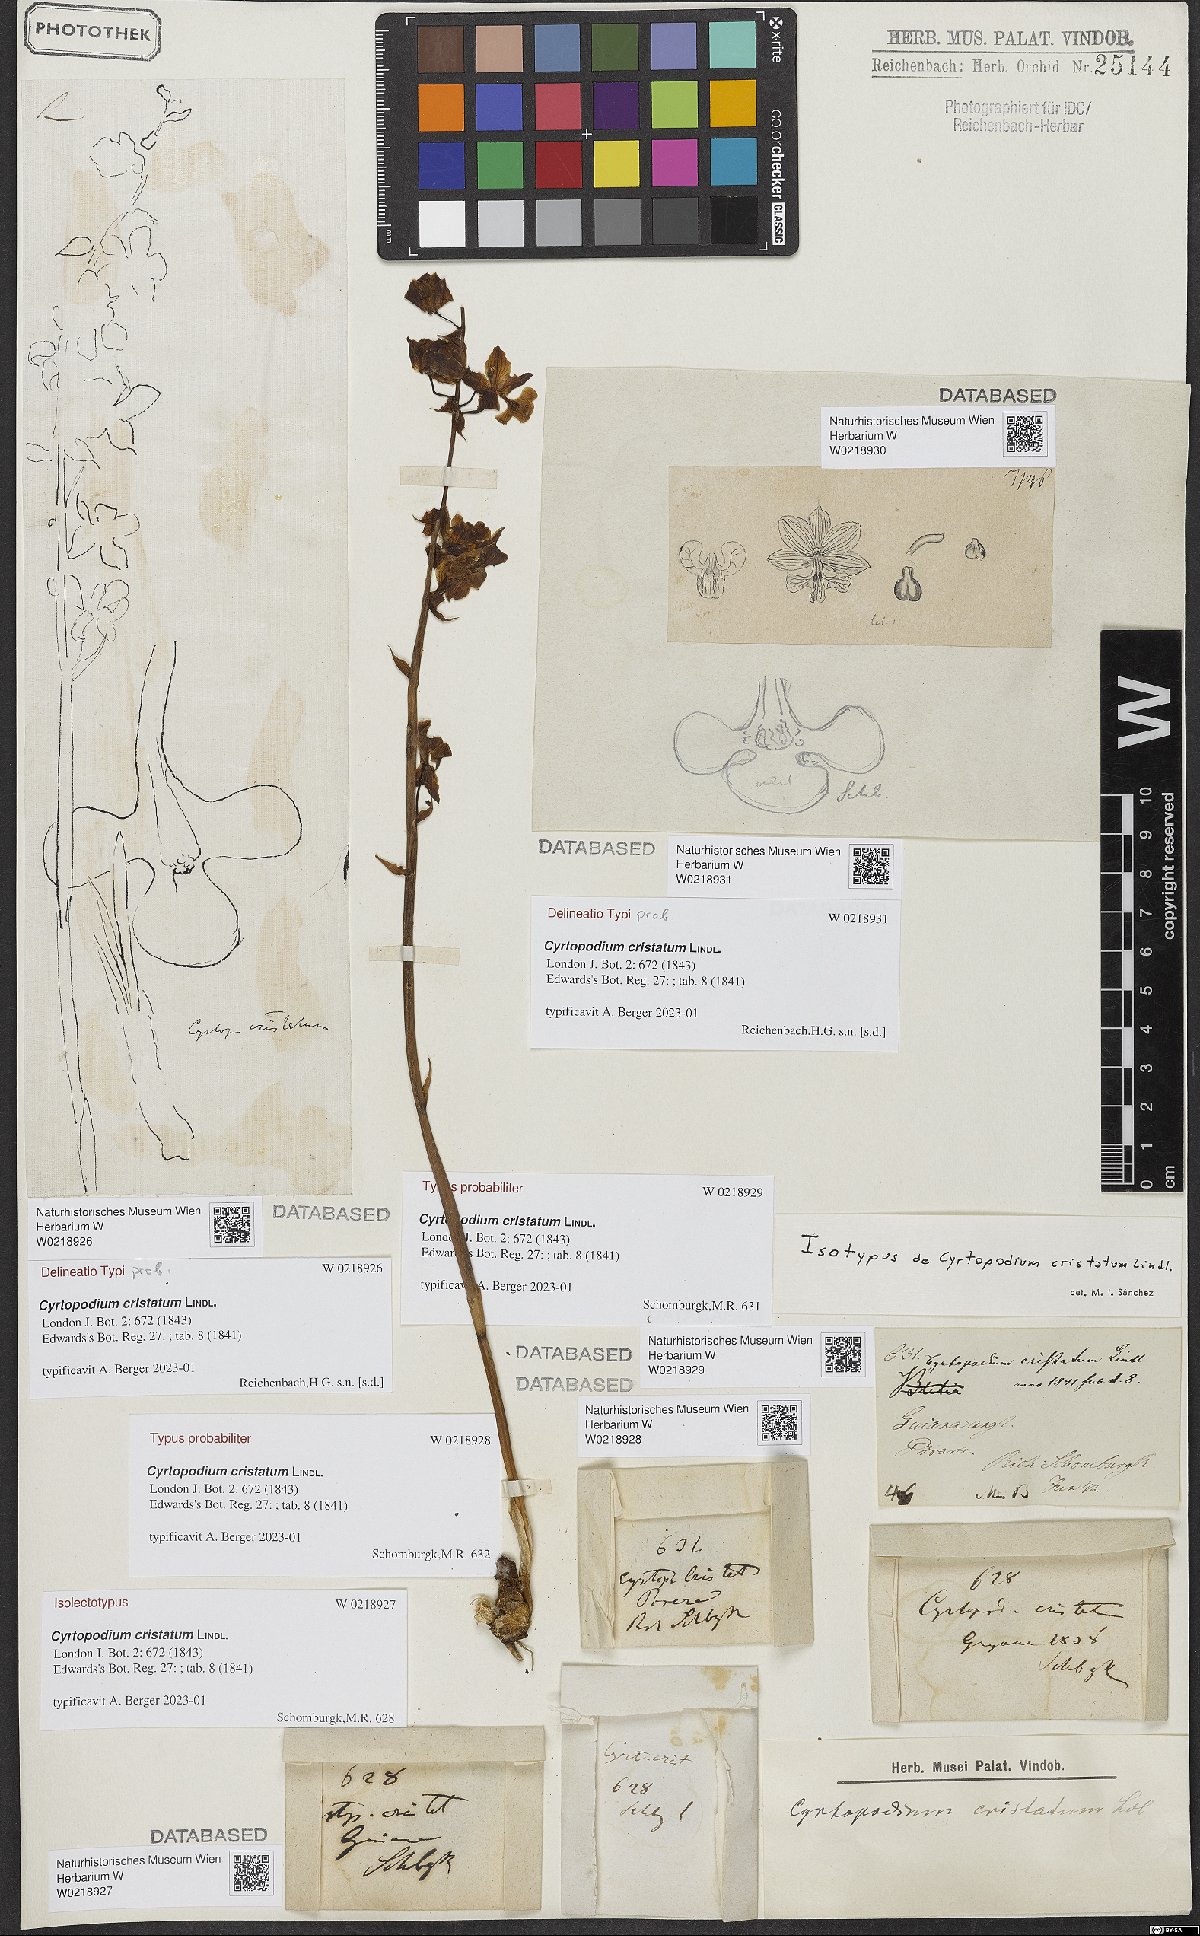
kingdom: Plantae
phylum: Tracheophyta
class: Liliopsida
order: Asparagales
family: Orchidaceae
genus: Cyrtopodium
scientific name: Cyrtopodium cristatum
